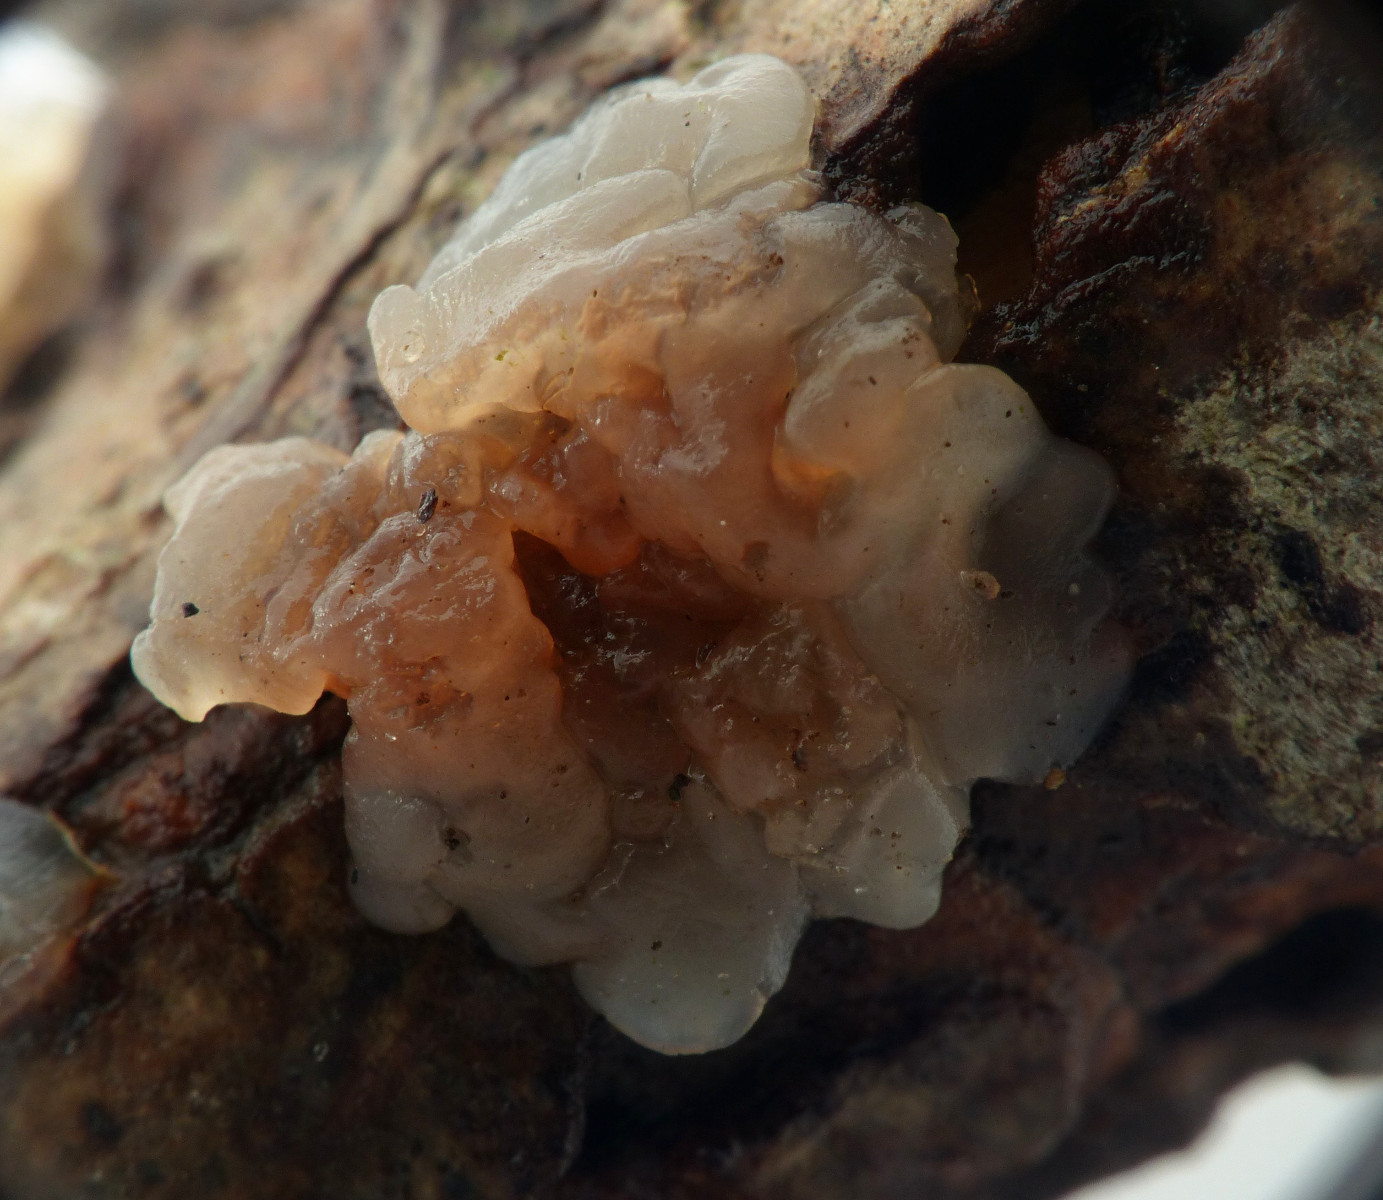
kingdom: Fungi
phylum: Basidiomycota
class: Agaricomycetes
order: Auriculariales
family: Auriculariaceae
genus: Exidia
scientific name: Exidia thuretiana
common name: hvidlig bævretop
